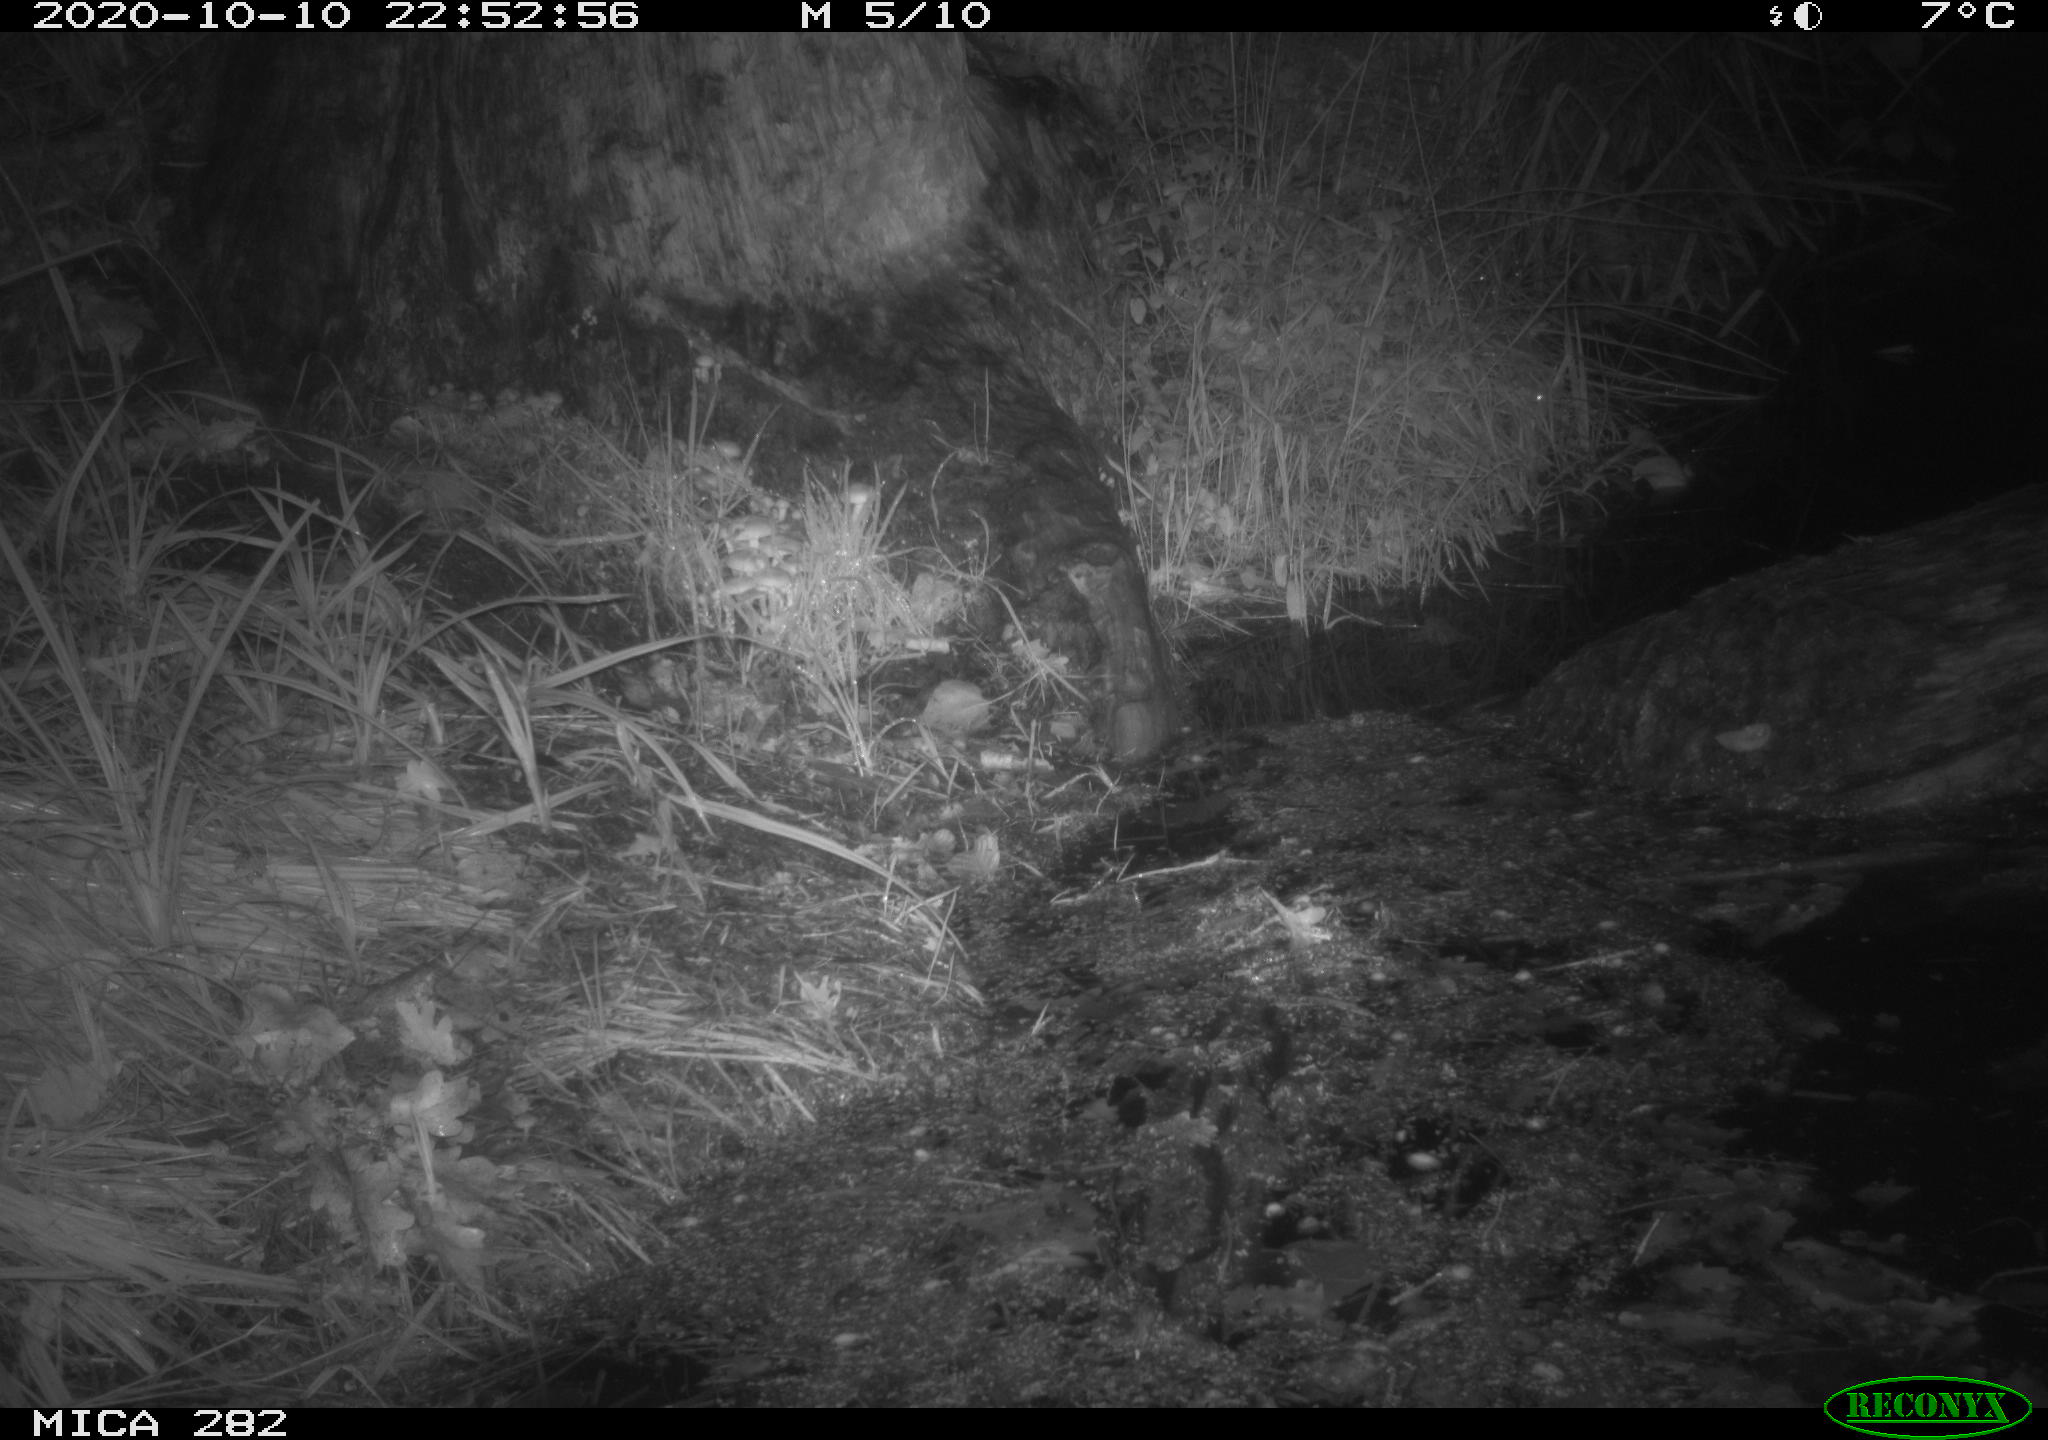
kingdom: Animalia
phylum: Chordata
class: Mammalia
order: Soricomorpha
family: Soricidae
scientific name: Soricidae
